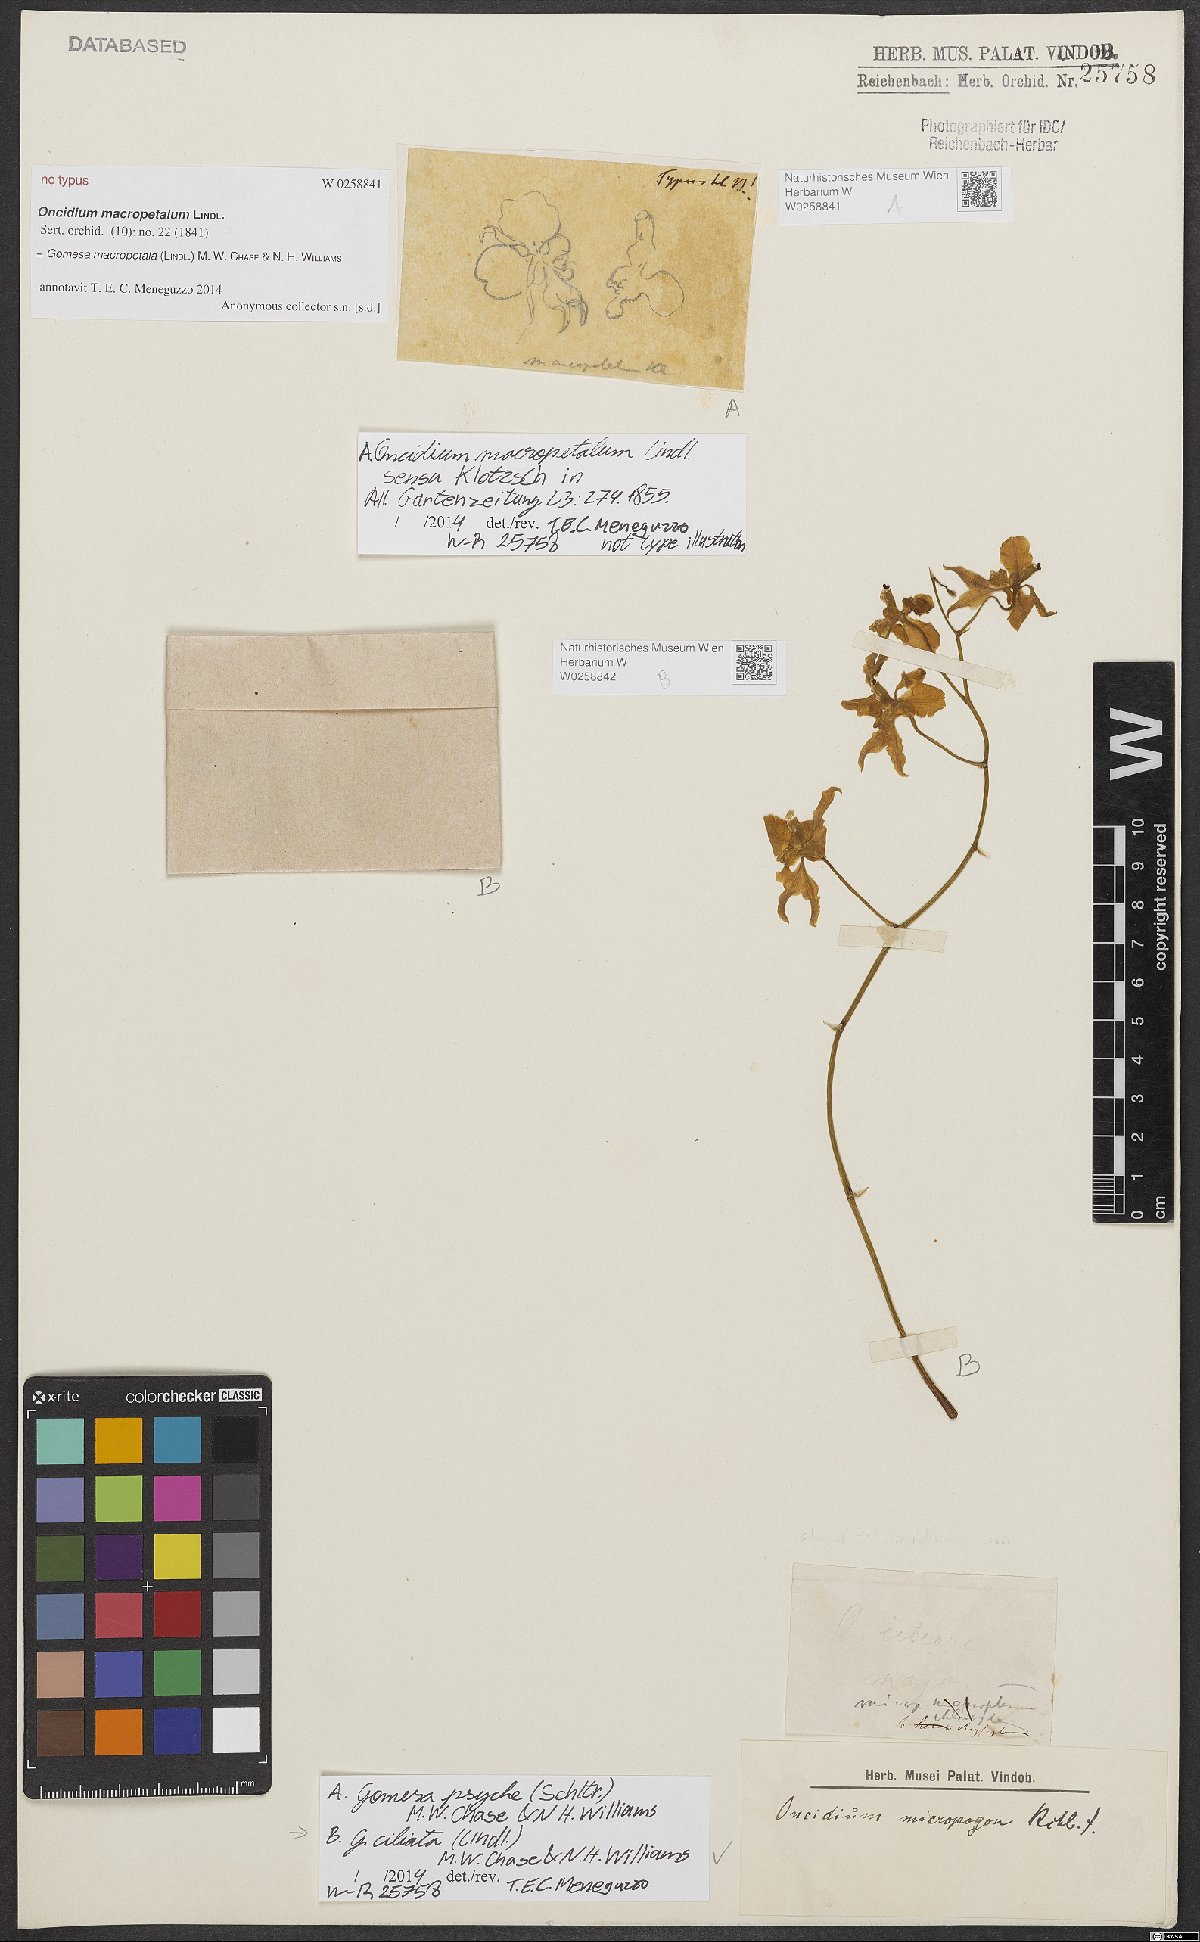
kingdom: Plantae
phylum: Tracheophyta
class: Liliopsida
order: Asparagales
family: Orchidaceae
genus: Gomesa
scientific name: Gomesa ciliata
